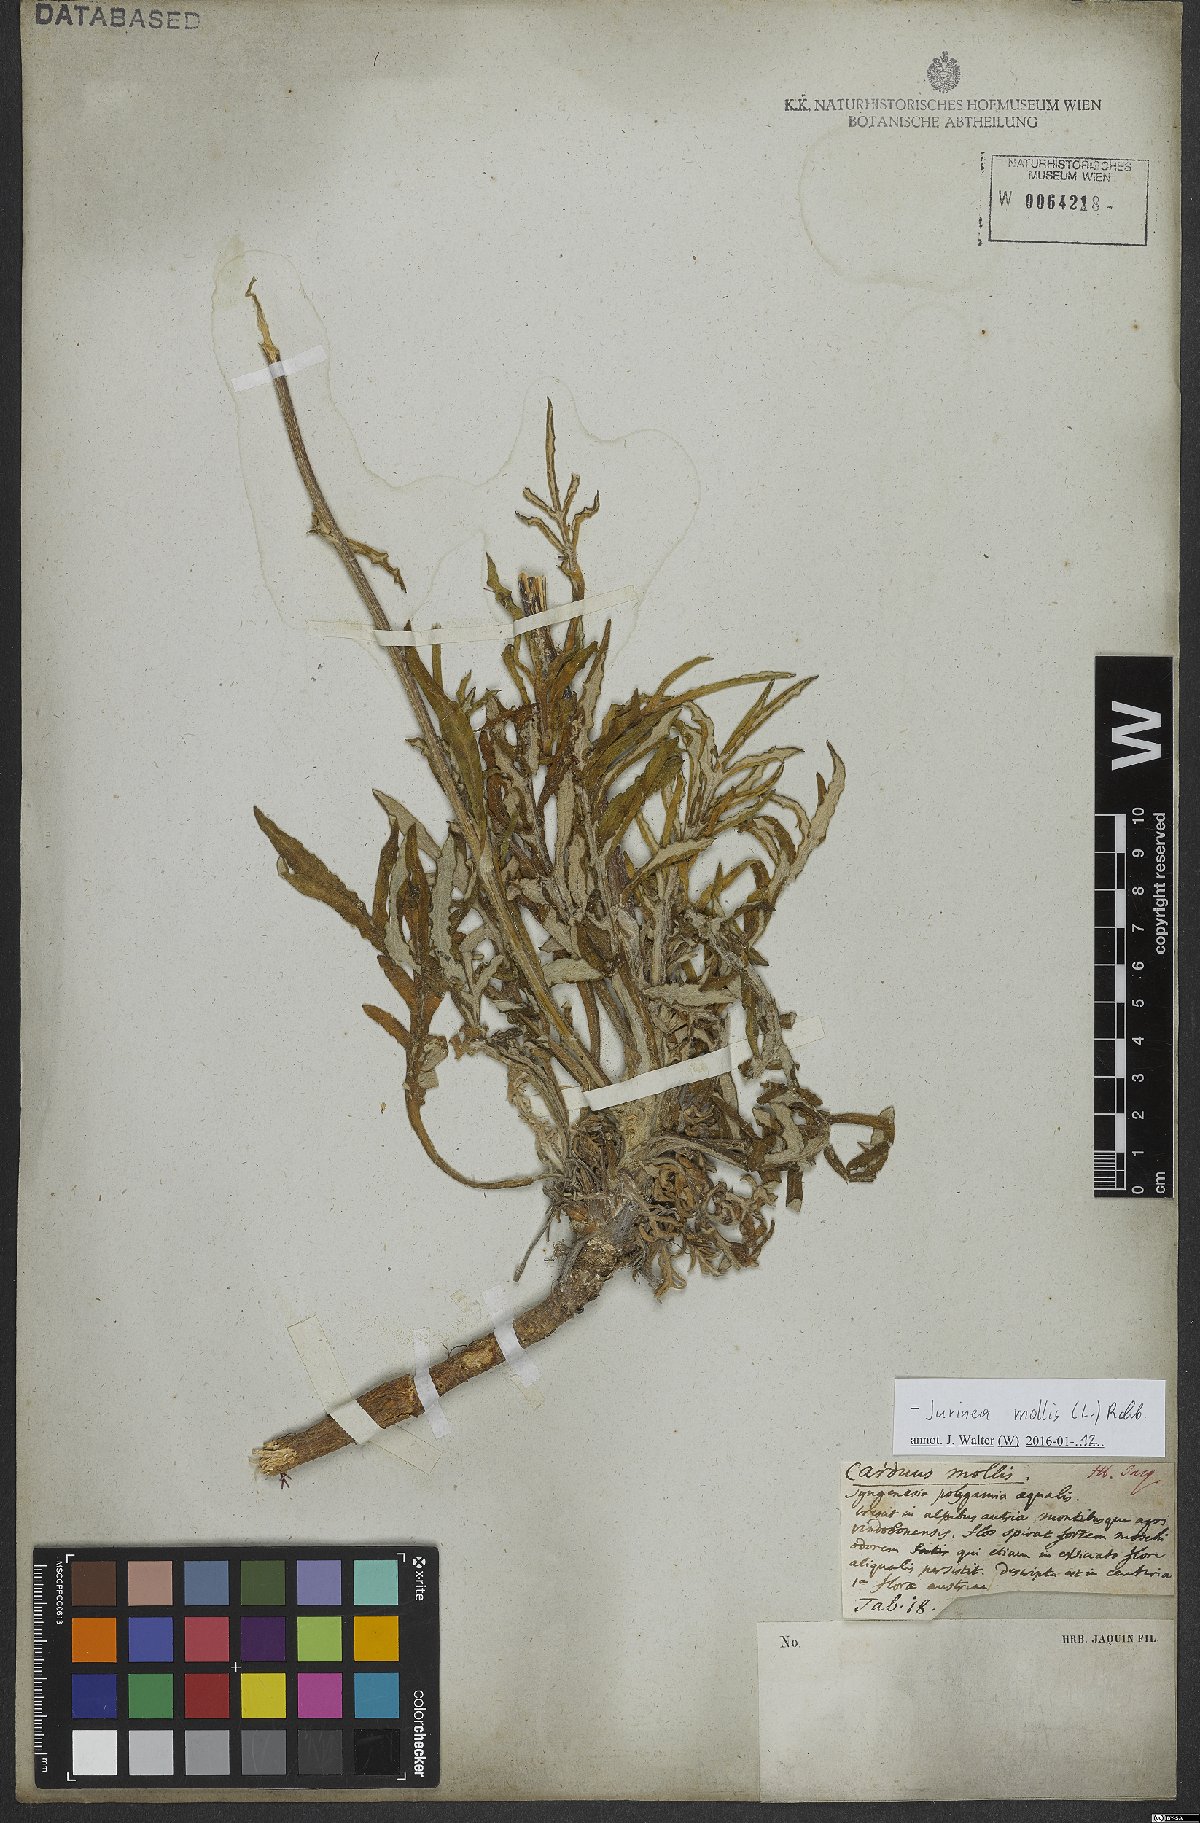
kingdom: Plantae
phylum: Tracheophyta
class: Magnoliopsida
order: Asterales
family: Asteraceae
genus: Jurinea
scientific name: Jurinea mollis
